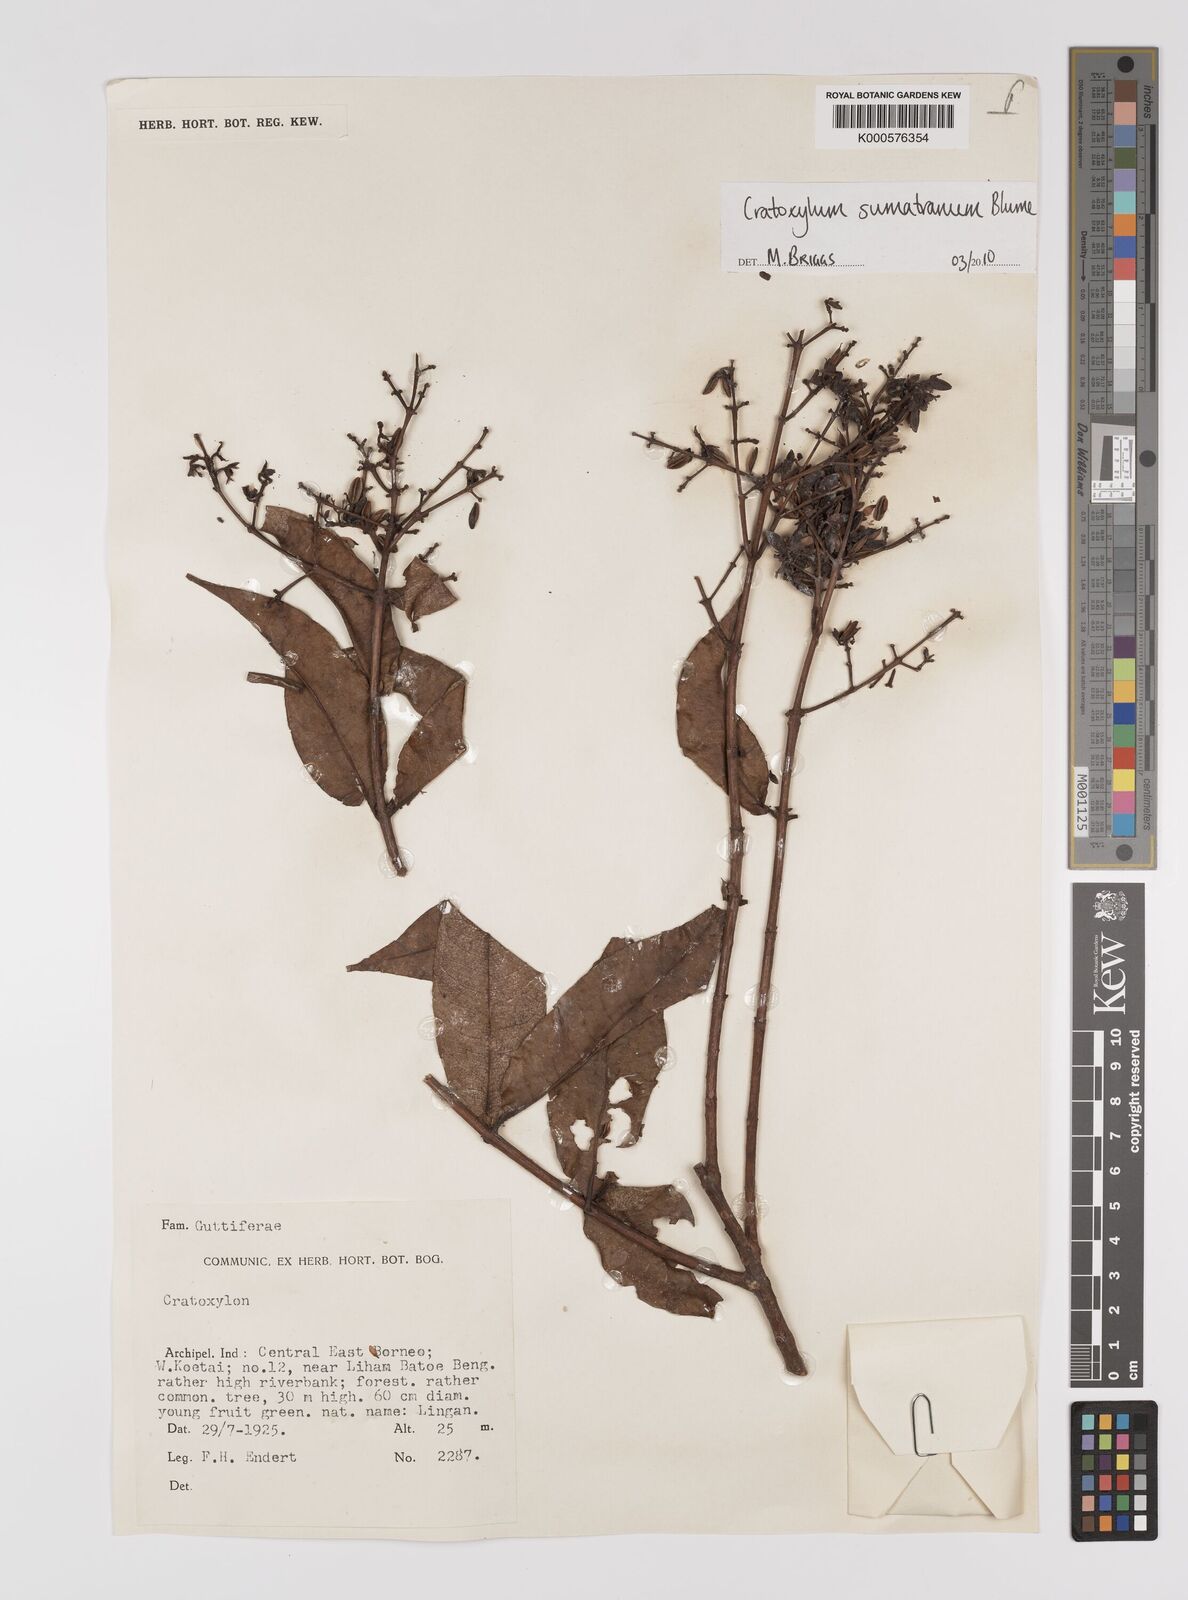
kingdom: Plantae
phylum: Tracheophyta
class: Magnoliopsida
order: Malpighiales
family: Hypericaceae
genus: Cratoxylum
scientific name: Cratoxylum sumatranum
